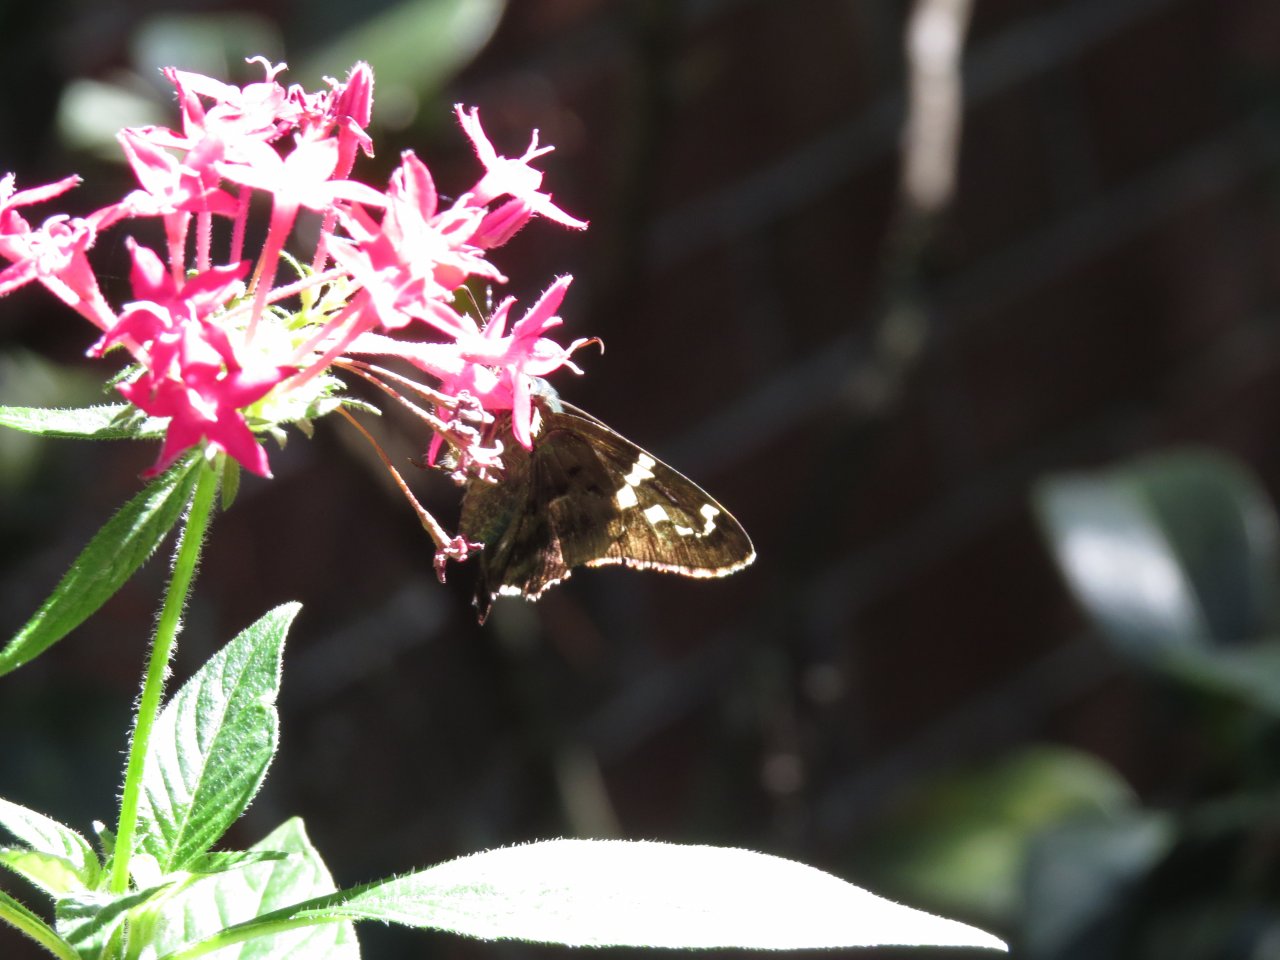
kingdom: Animalia
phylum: Arthropoda
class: Insecta
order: Lepidoptera
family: Hesperiidae
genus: Urbanus
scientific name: Urbanus proteus
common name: Long-tailed Skipper
